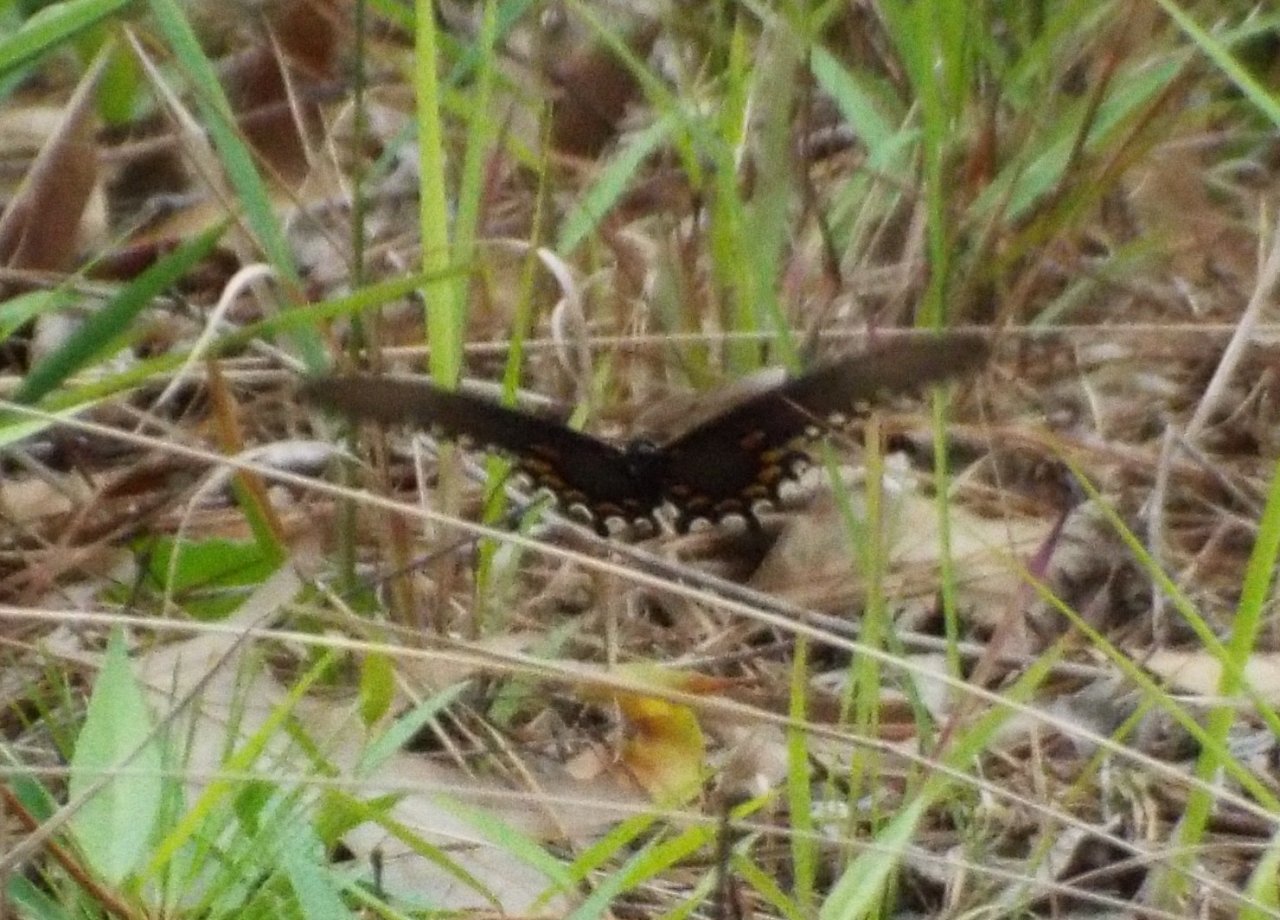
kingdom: Animalia
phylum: Arthropoda
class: Insecta
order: Lepidoptera
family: Papilionidae
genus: Battus
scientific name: Battus philenor
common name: Pipevine Swallowtail
